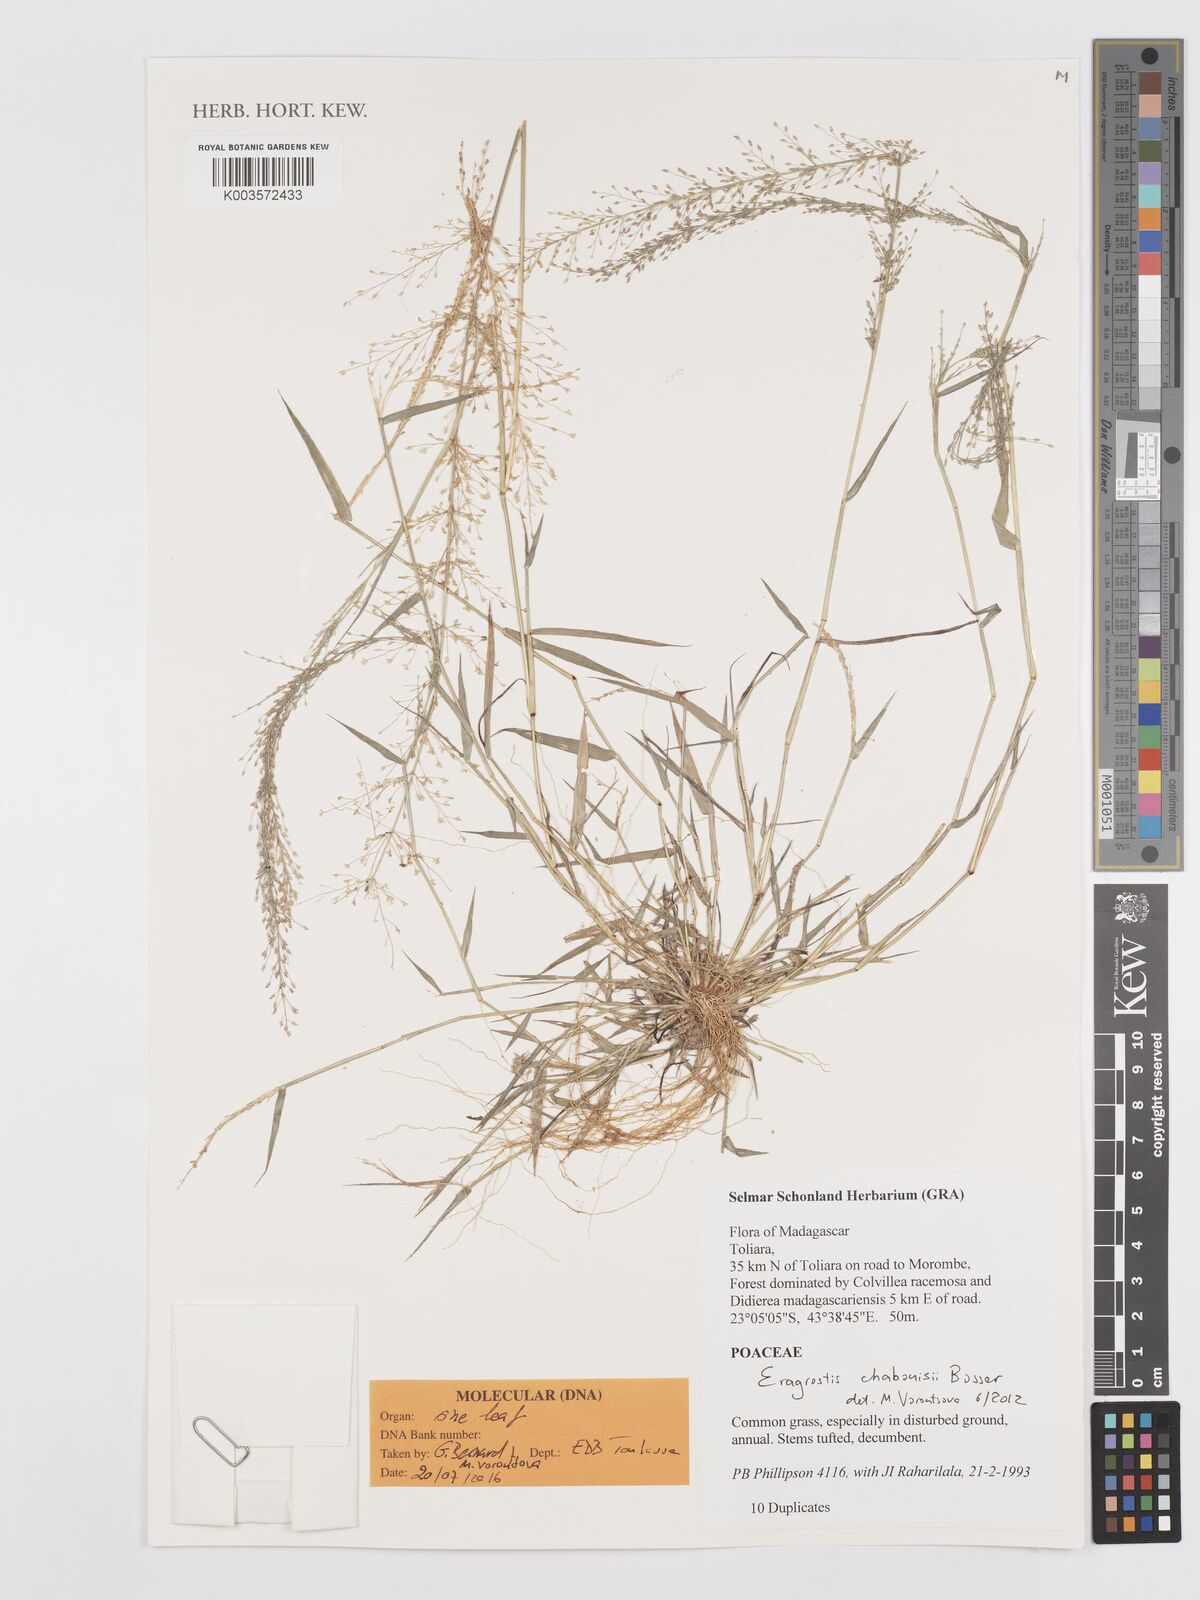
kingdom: Plantae
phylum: Tracheophyta
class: Liliopsida
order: Poales
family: Poaceae
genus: Eragrostis
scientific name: Eragrostis chabouisii
